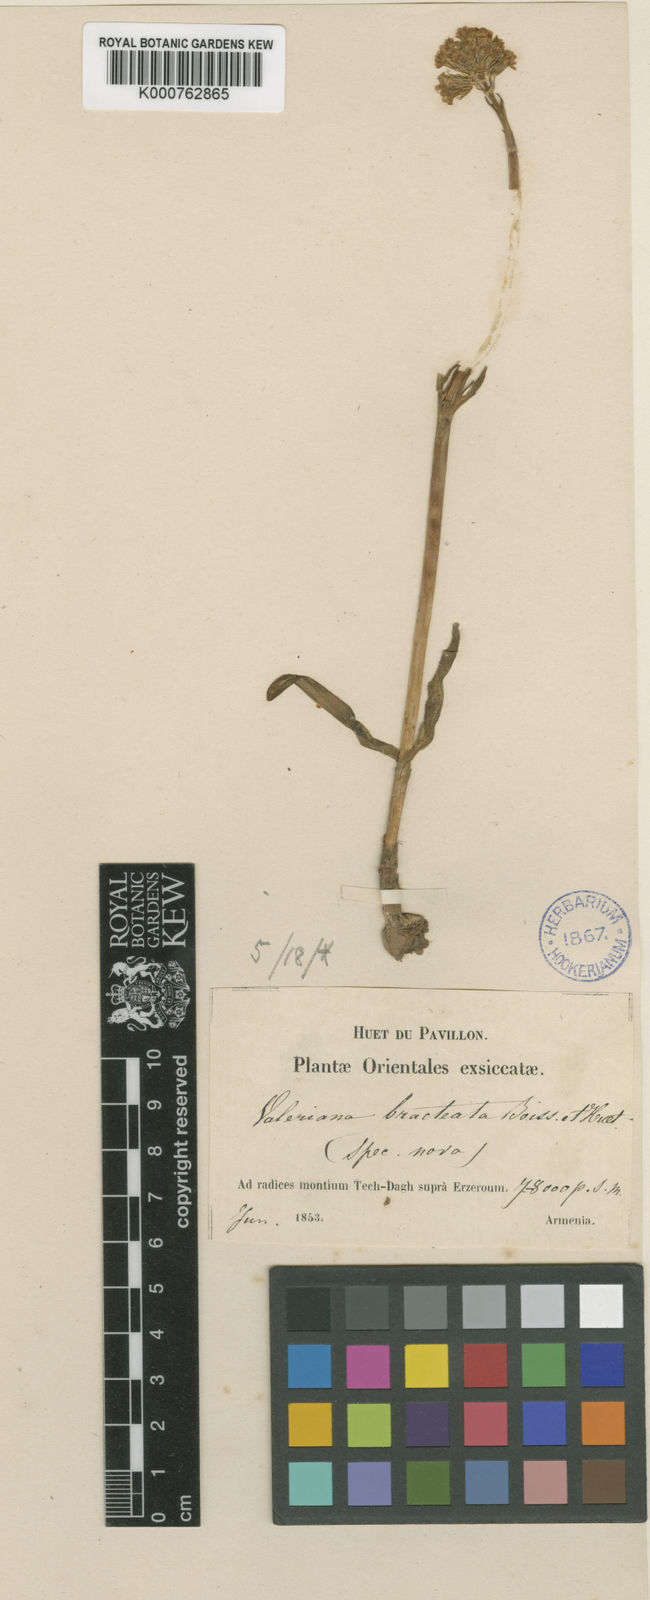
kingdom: Plantae
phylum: Tracheophyta
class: Magnoliopsida
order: Dipsacales
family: Caprifoliaceae
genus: Valeriana
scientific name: Valeriana leucophaea
